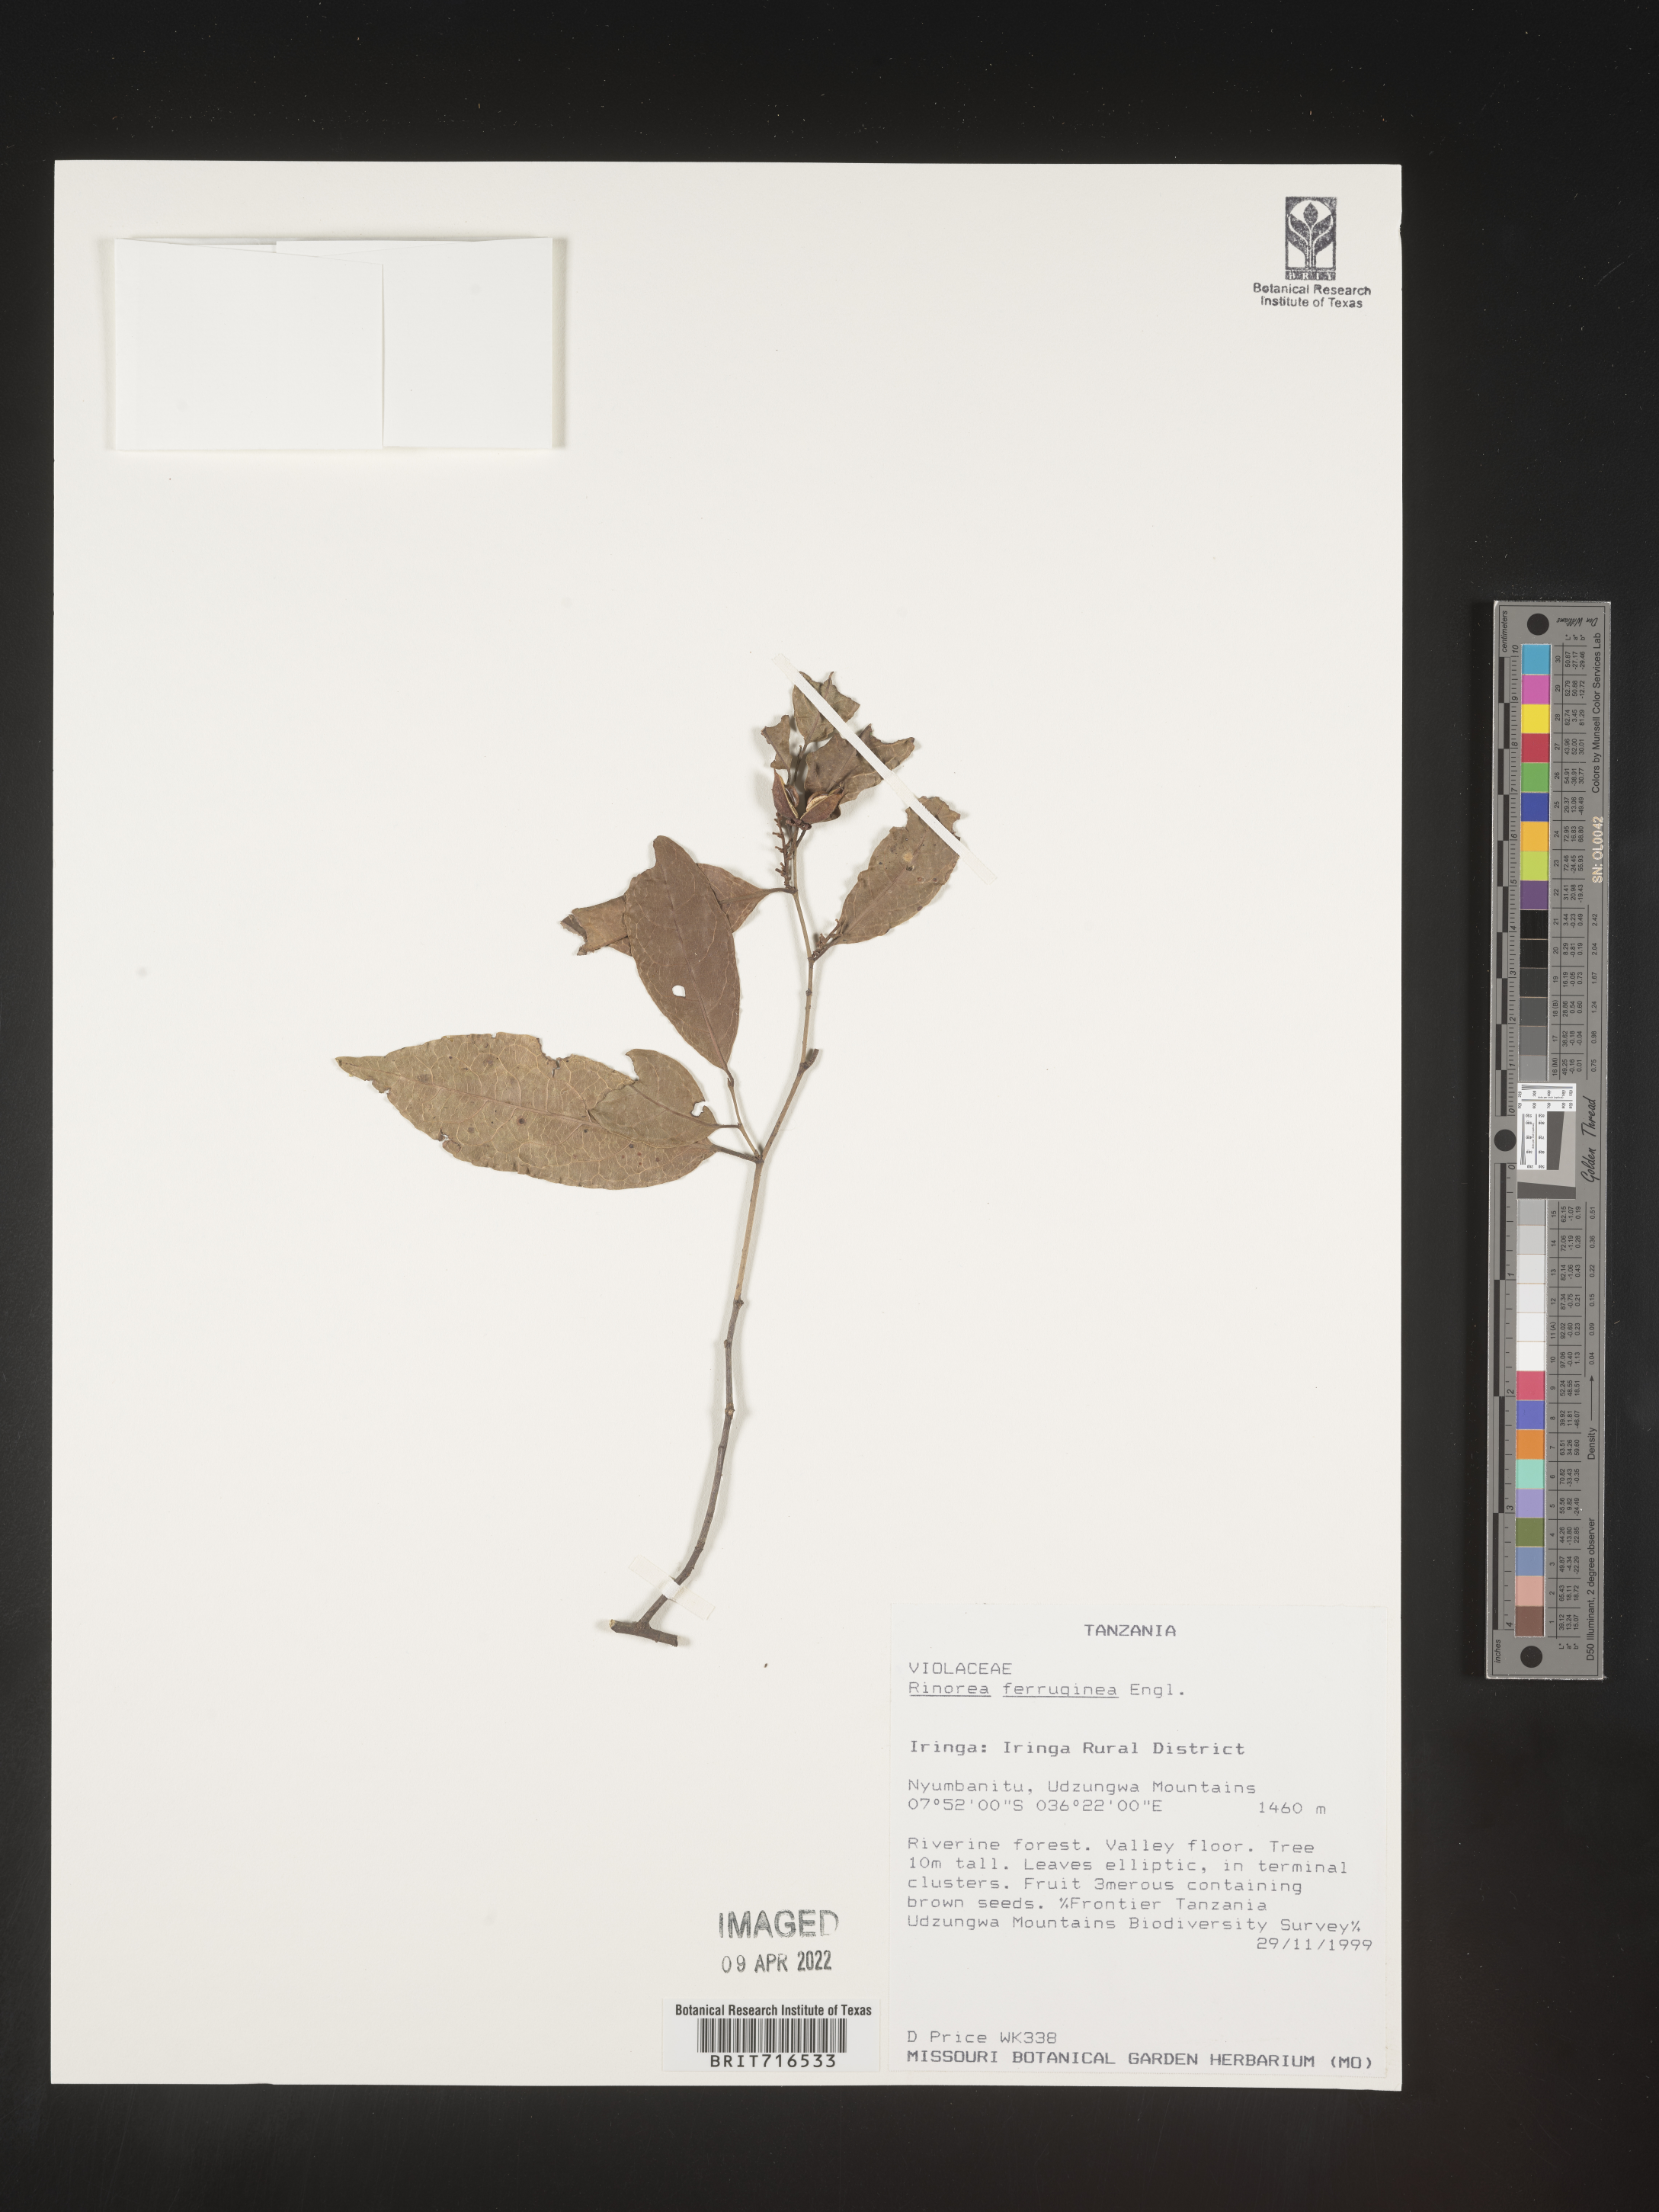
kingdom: Plantae
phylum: Tracheophyta
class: Magnoliopsida
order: Malpighiales
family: Violaceae
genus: Rinorea
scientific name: Rinorea
